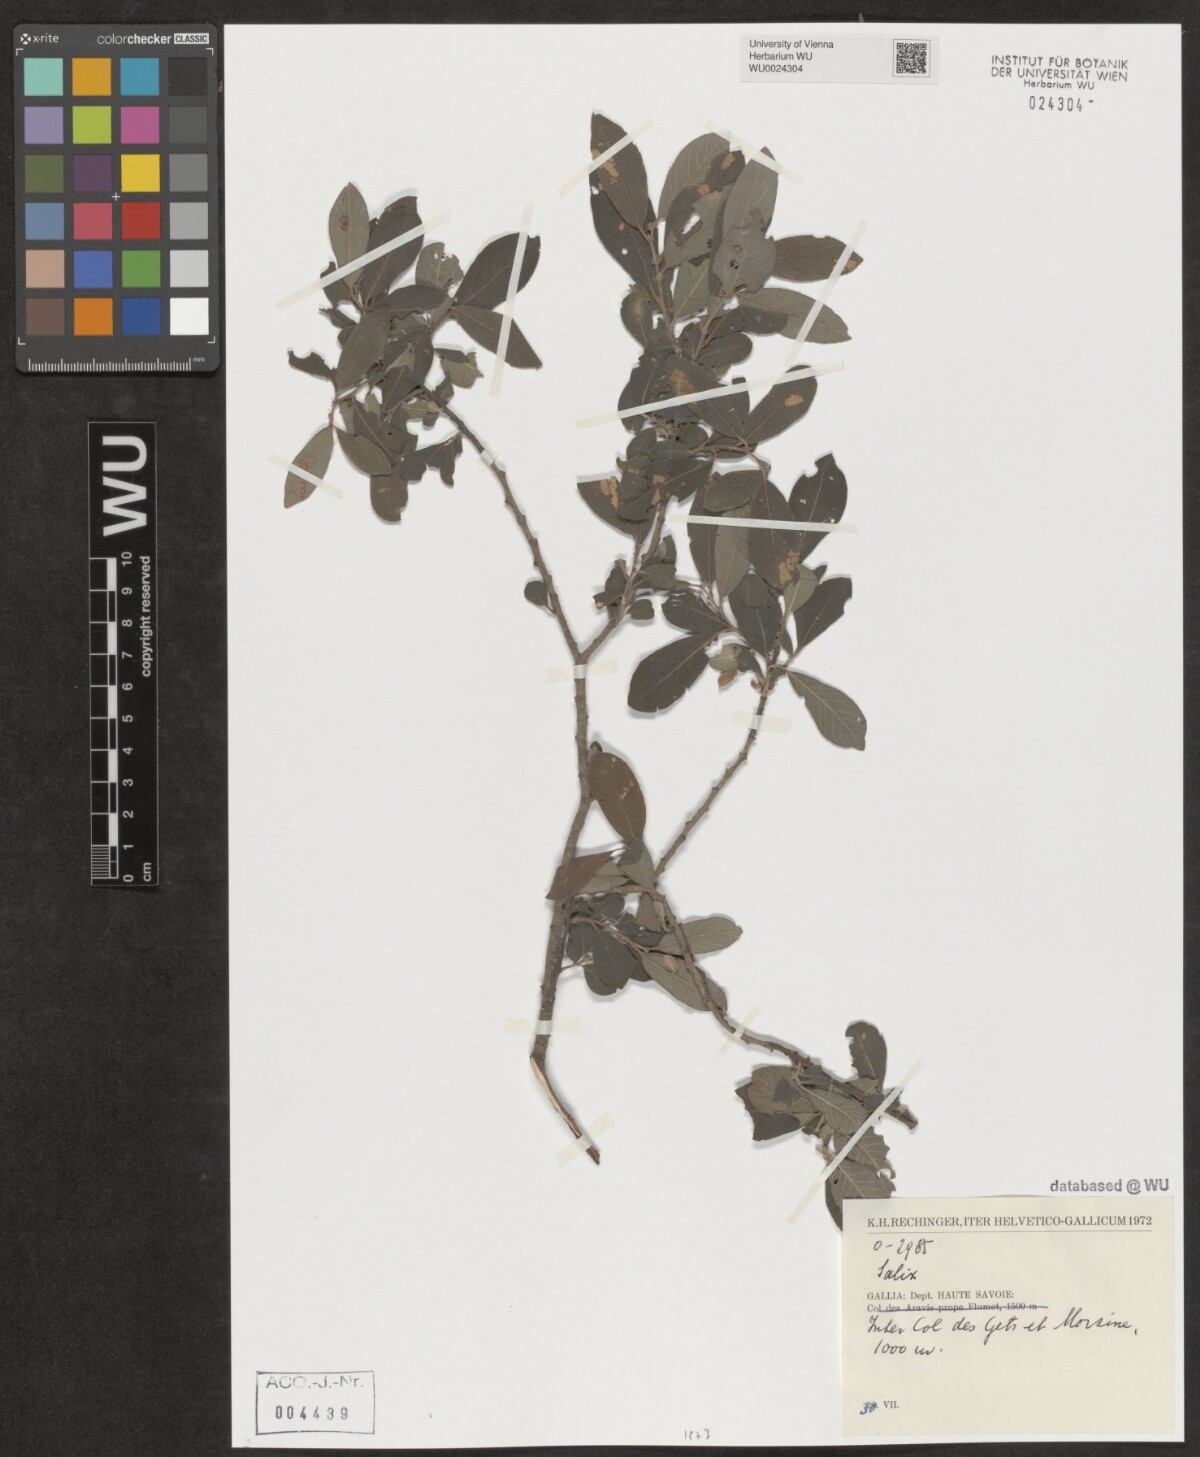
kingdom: Plantae
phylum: Tracheophyta
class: Magnoliopsida
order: Malpighiales
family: Salicaceae
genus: Salix
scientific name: Salix
